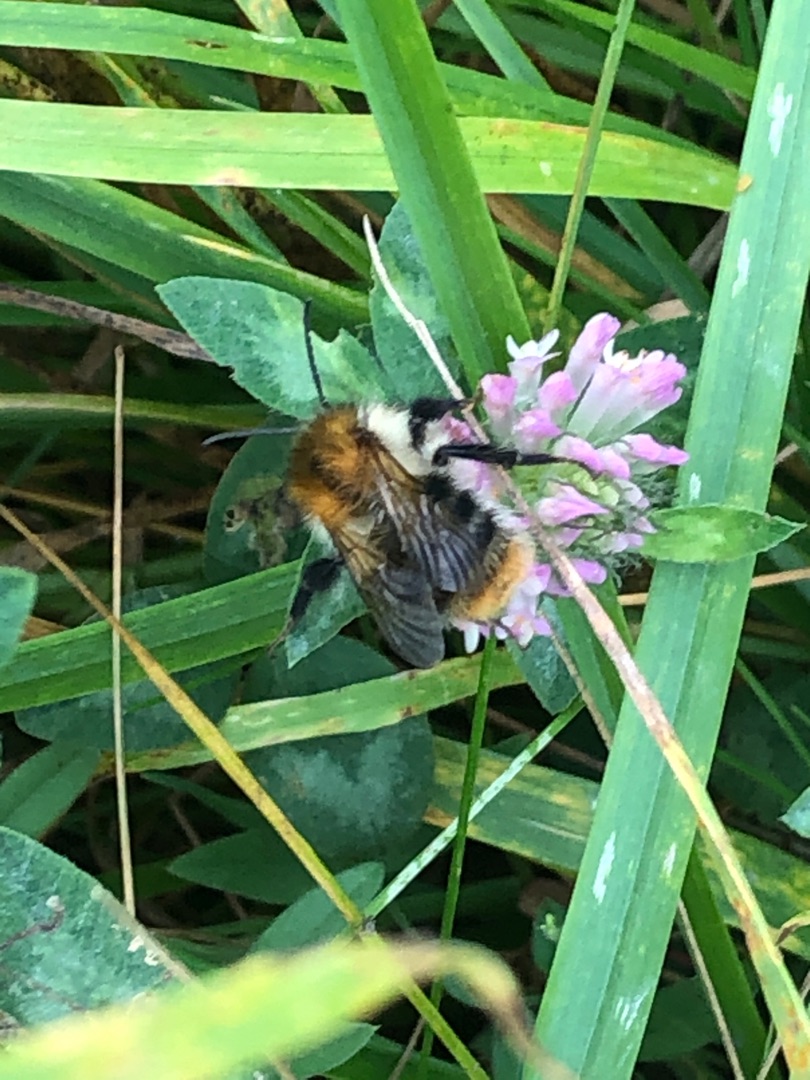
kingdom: Animalia
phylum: Arthropoda
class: Insecta
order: Hymenoptera
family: Apidae
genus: Bombus
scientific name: Bombus pascuorum
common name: Agerhumle
